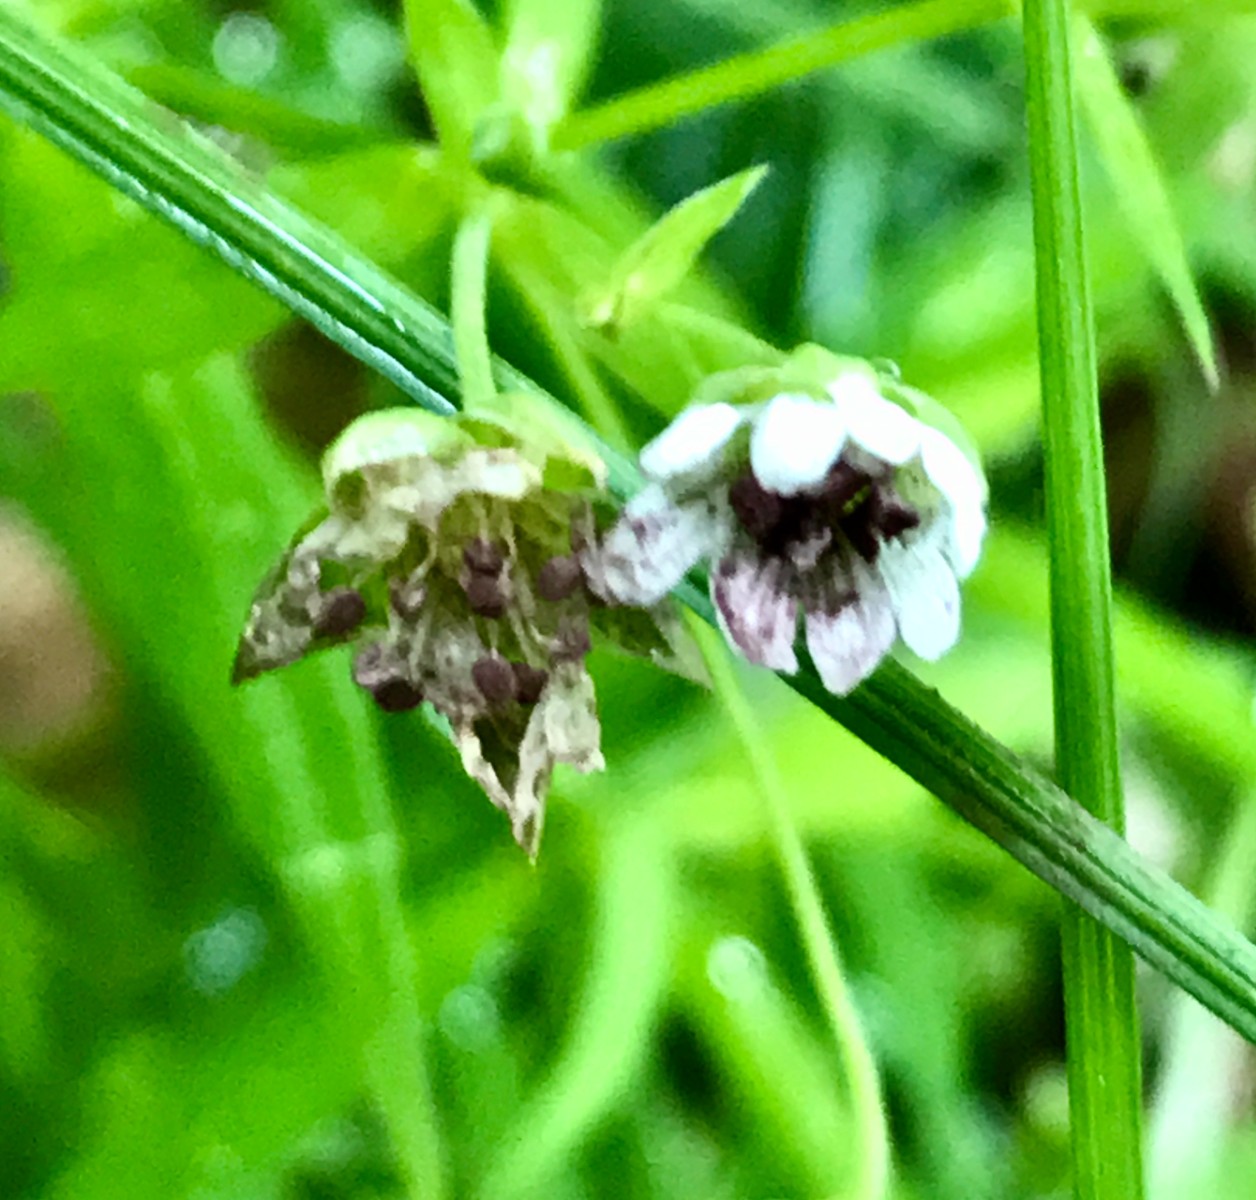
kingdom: Fungi
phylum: Basidiomycota
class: Microbotryomycetes
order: Microbotryales
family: Microbotryaceae
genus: Microbotryum
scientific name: Microbotryum stellariae
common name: fladstjerne-støvbladrust
